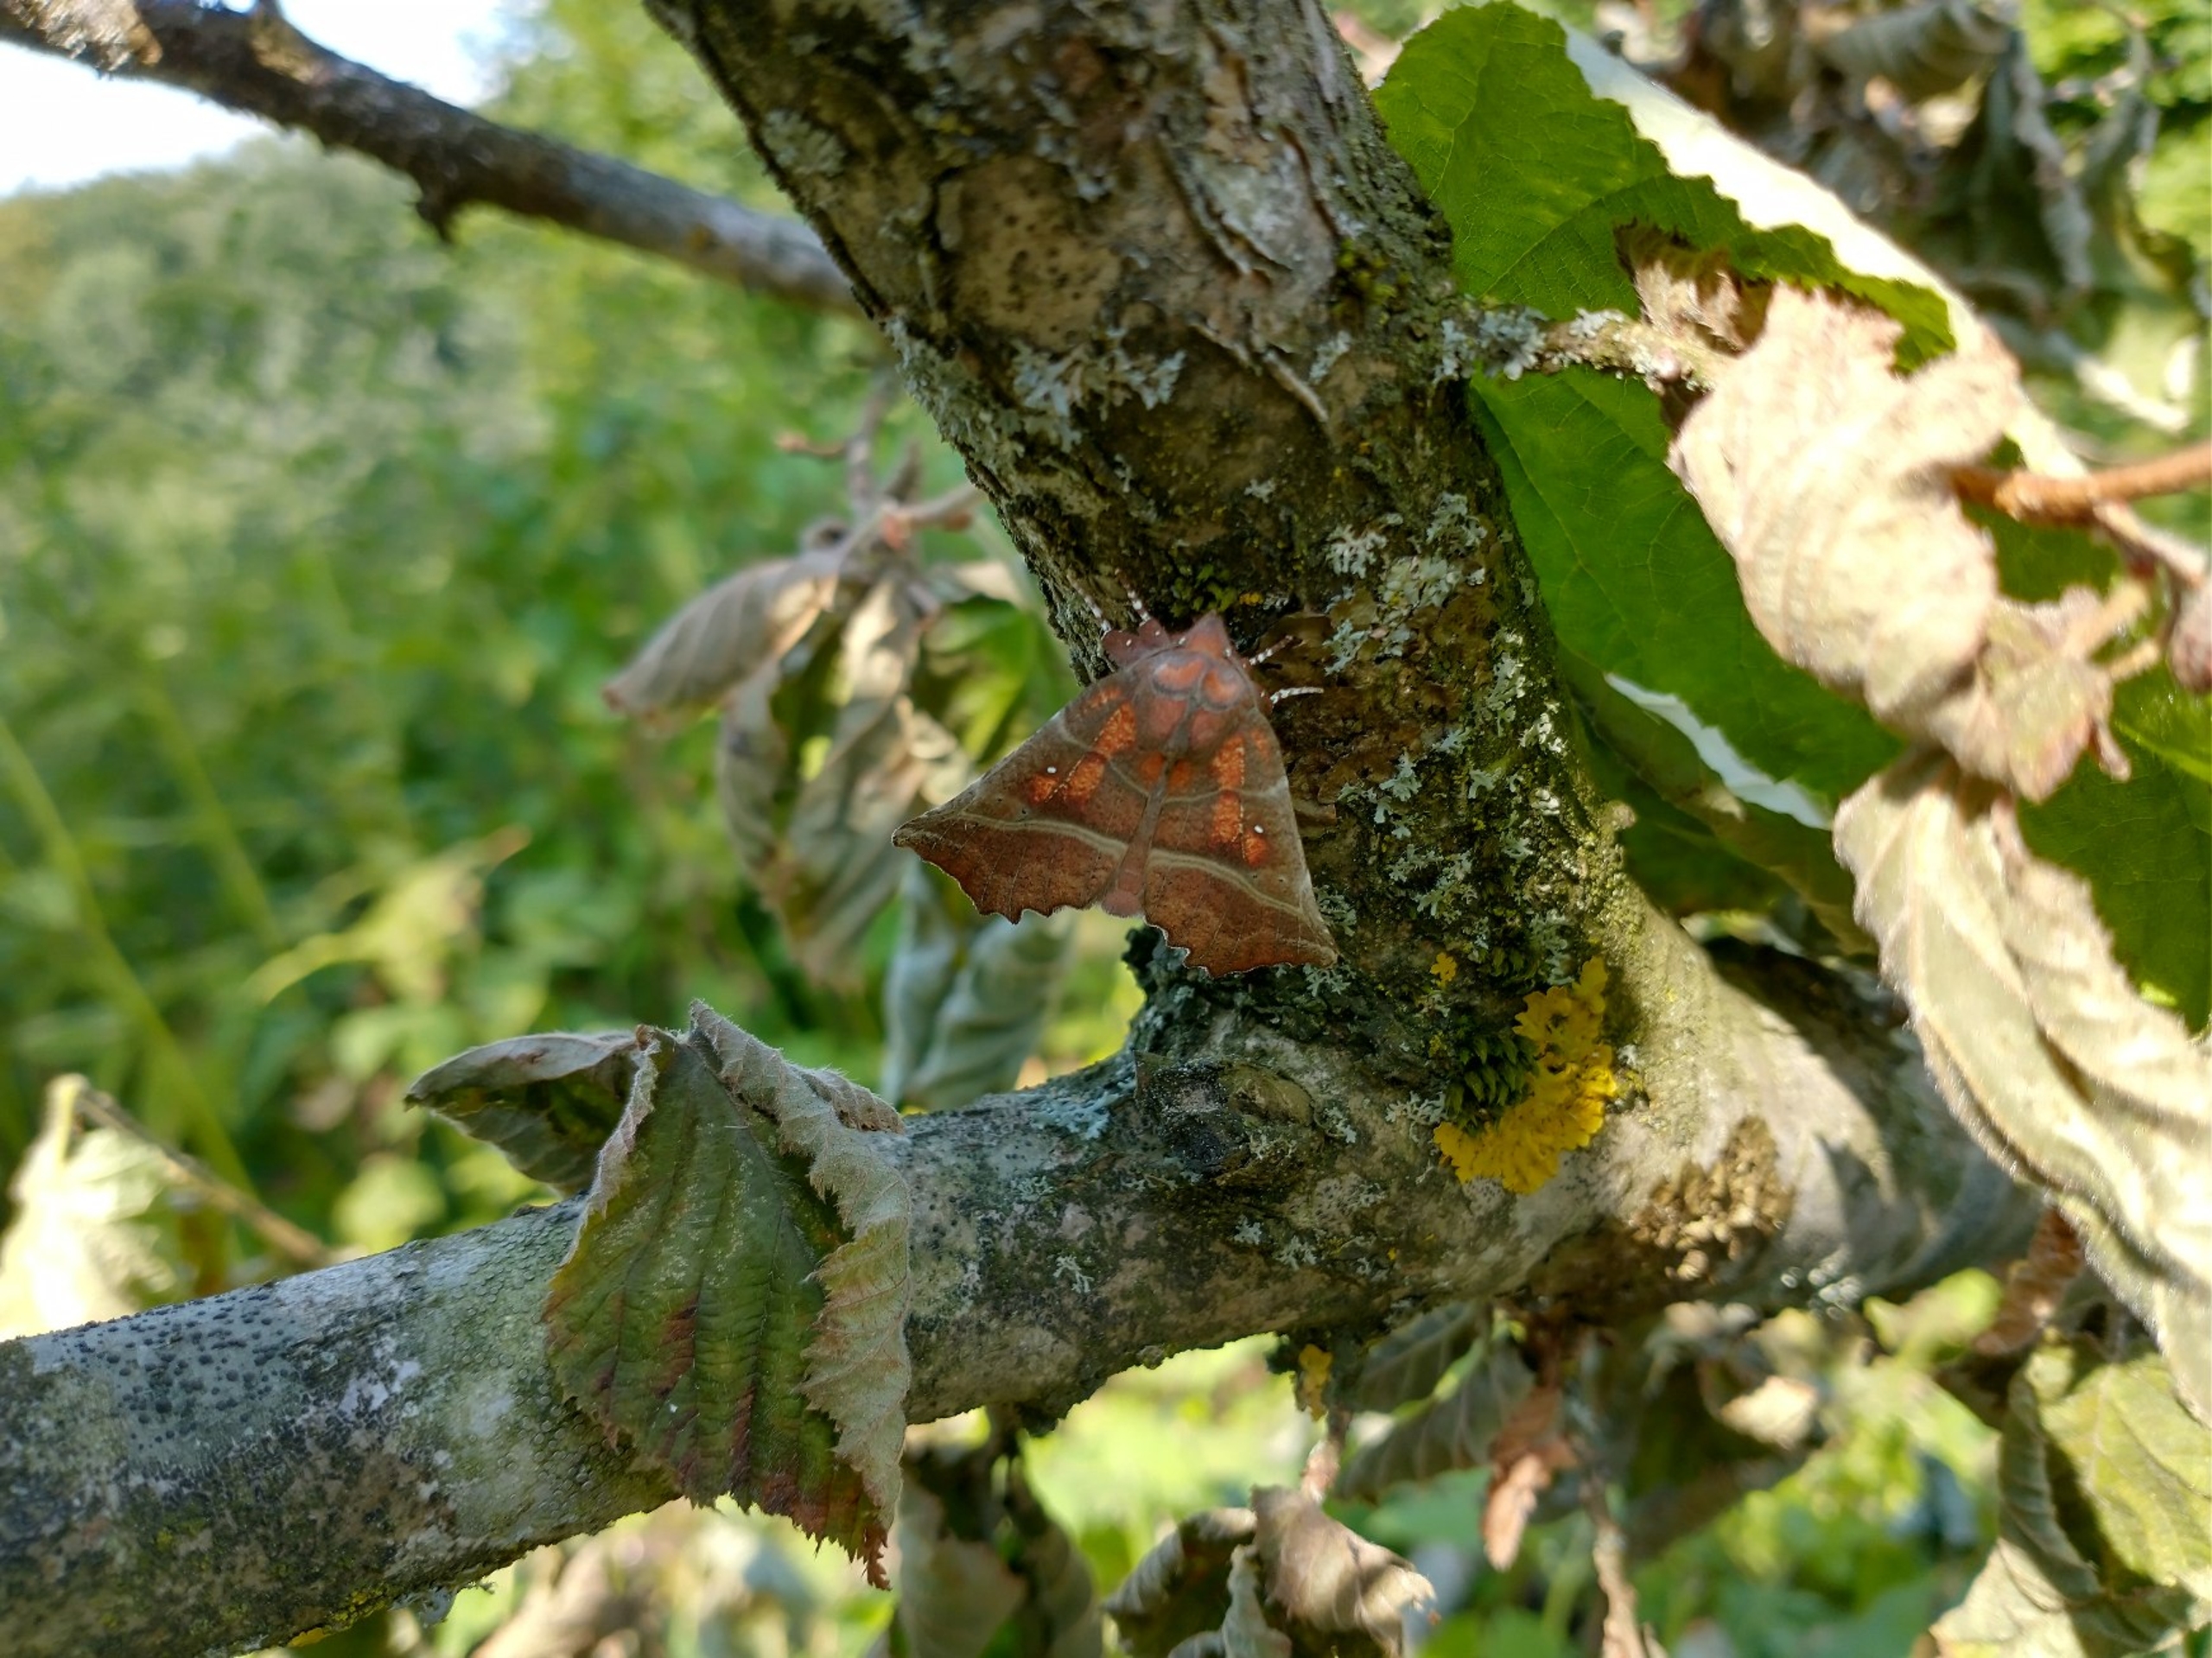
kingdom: Animalia
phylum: Arthropoda
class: Insecta
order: Lepidoptera
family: Erebidae
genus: Scoliopteryx
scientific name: Scoliopteryx libatrix
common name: Husmoderugle
